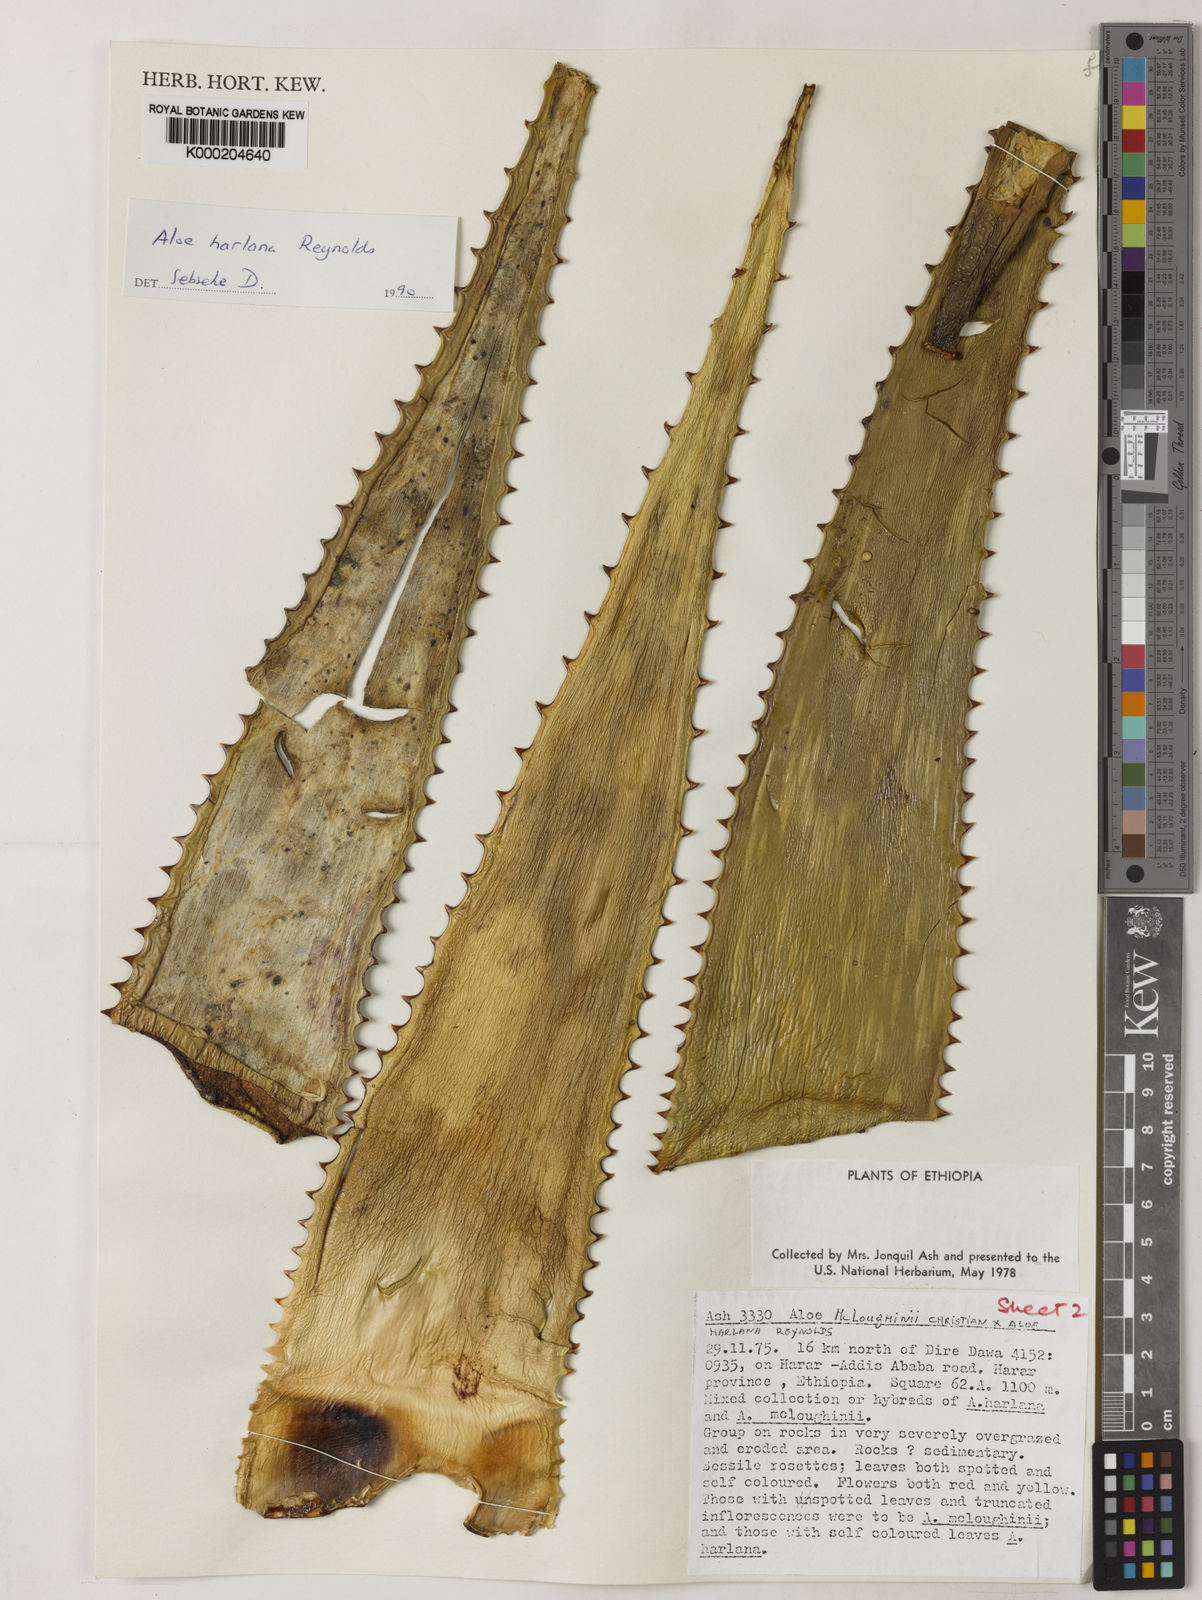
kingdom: Plantae
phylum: Tracheophyta
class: Liliopsida
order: Asparagales
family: Asphodelaceae
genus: Aloe
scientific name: Aloe harlana
